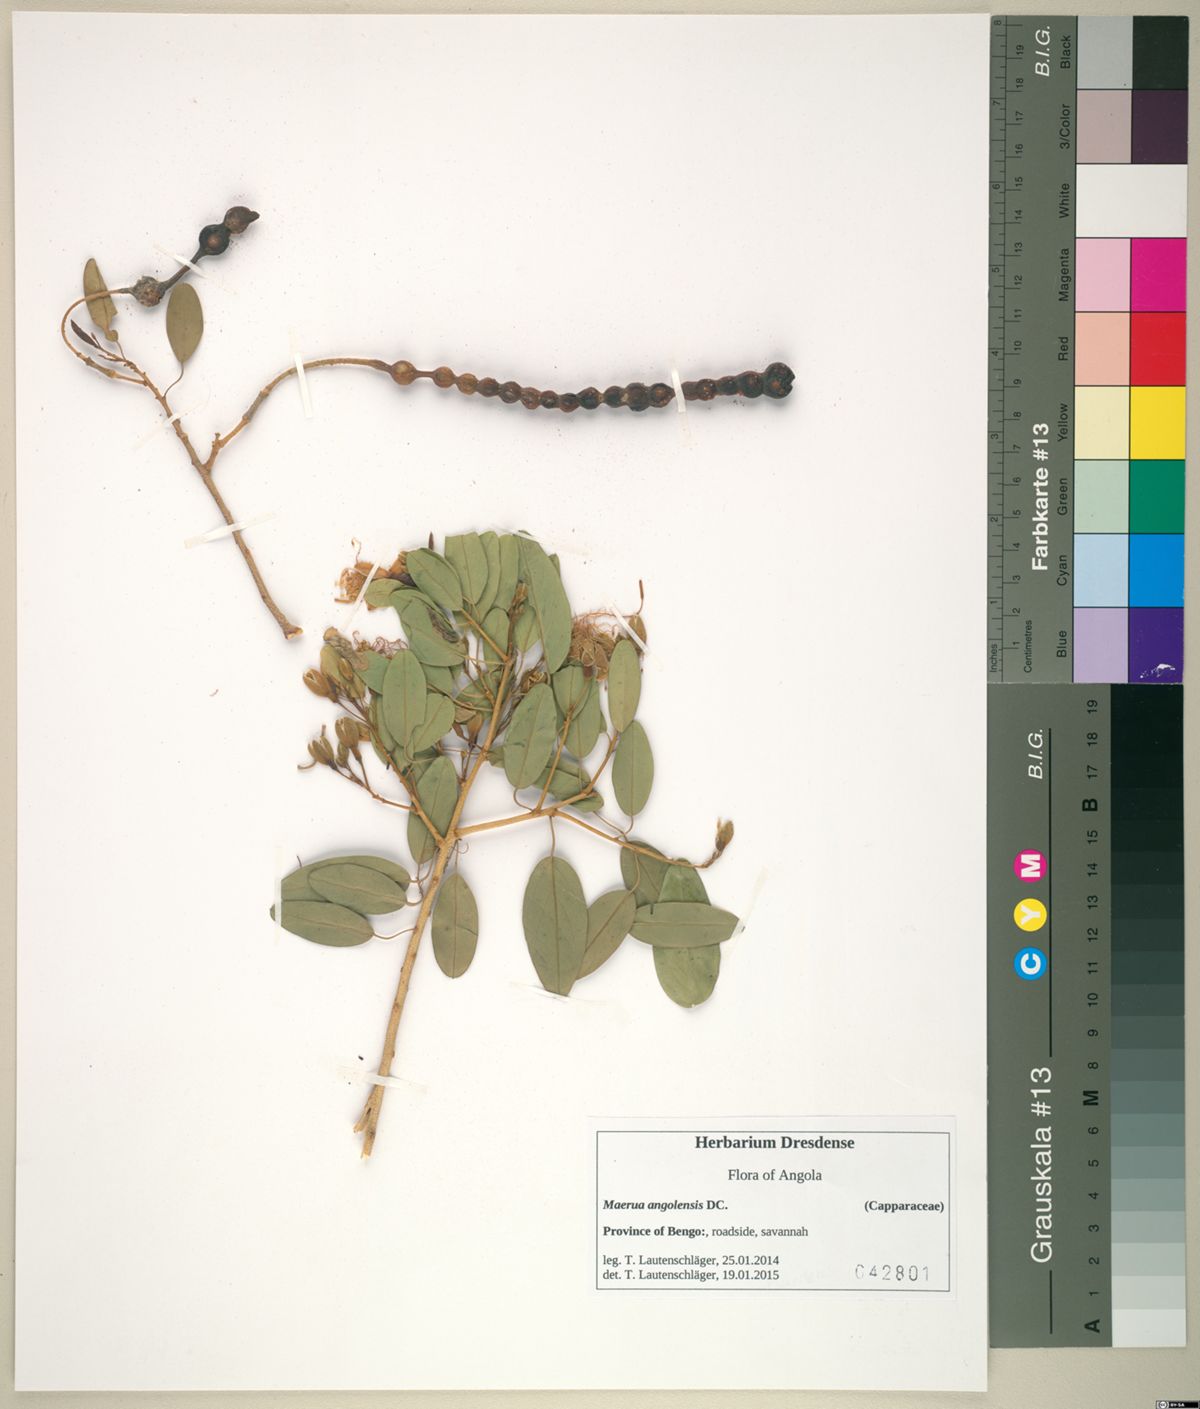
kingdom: Plantae
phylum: Tracheophyta
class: Magnoliopsida
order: Brassicales
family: Capparaceae
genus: Maerua
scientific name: Maerua angolensis
